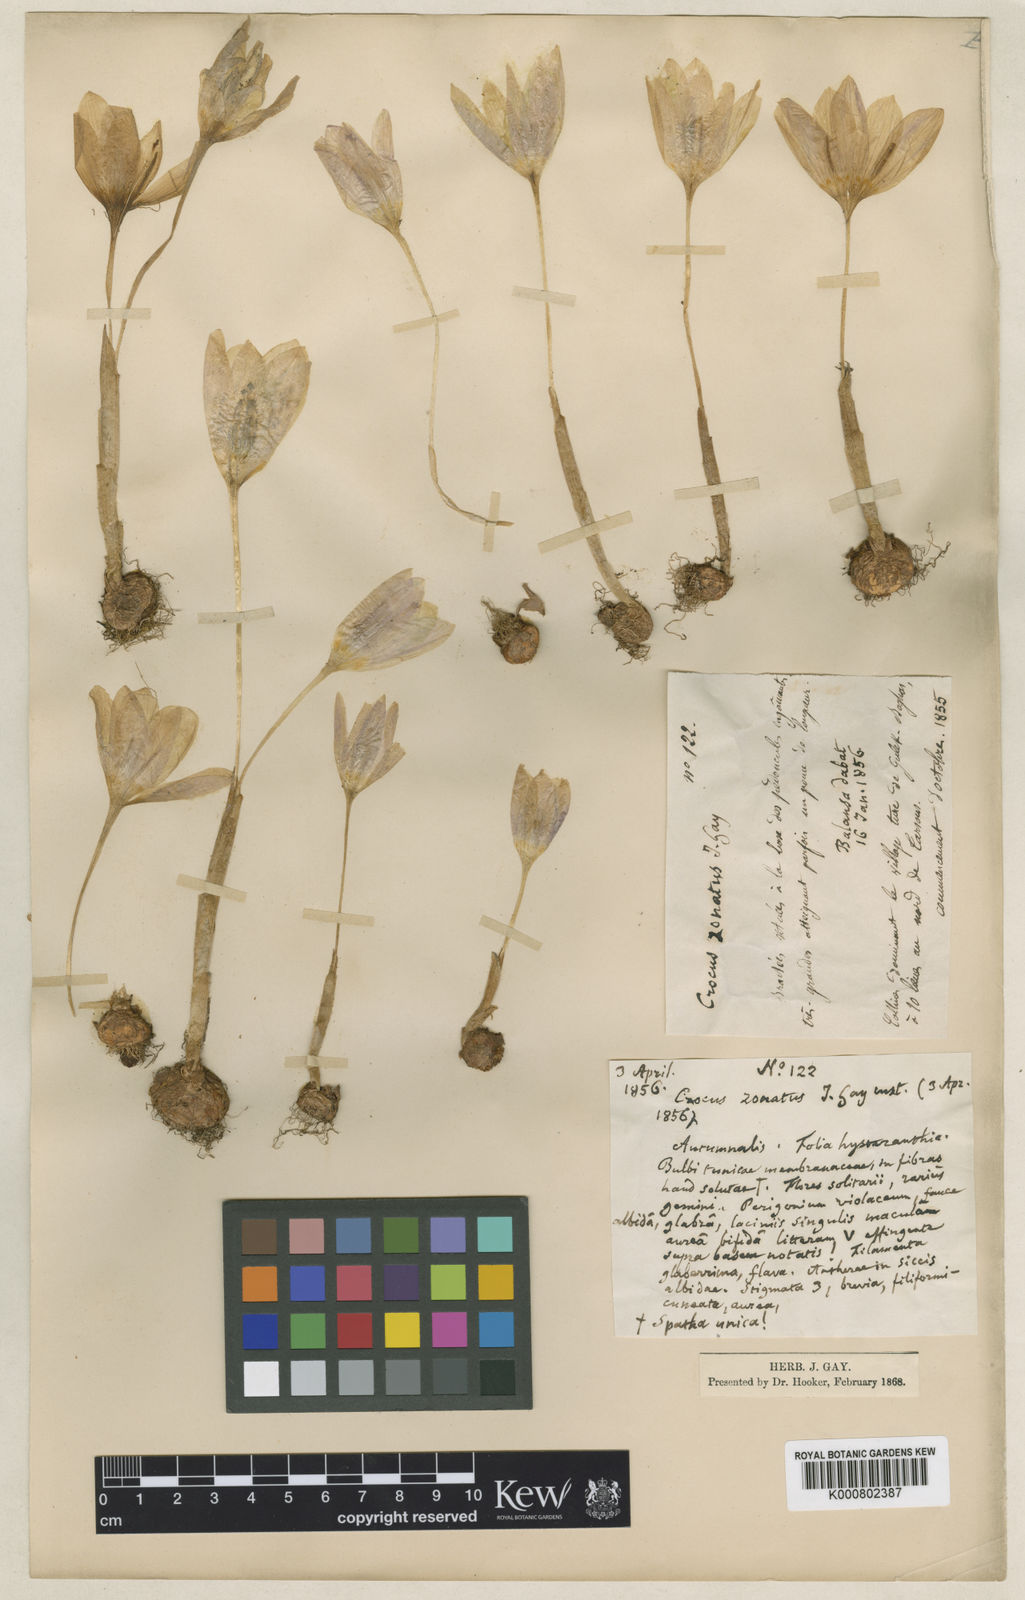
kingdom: Plantae
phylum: Tracheophyta
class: Liliopsida
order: Asparagales
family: Iridaceae
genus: Crocus
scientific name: Crocus kotschyanus
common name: Kotschy's crocus
